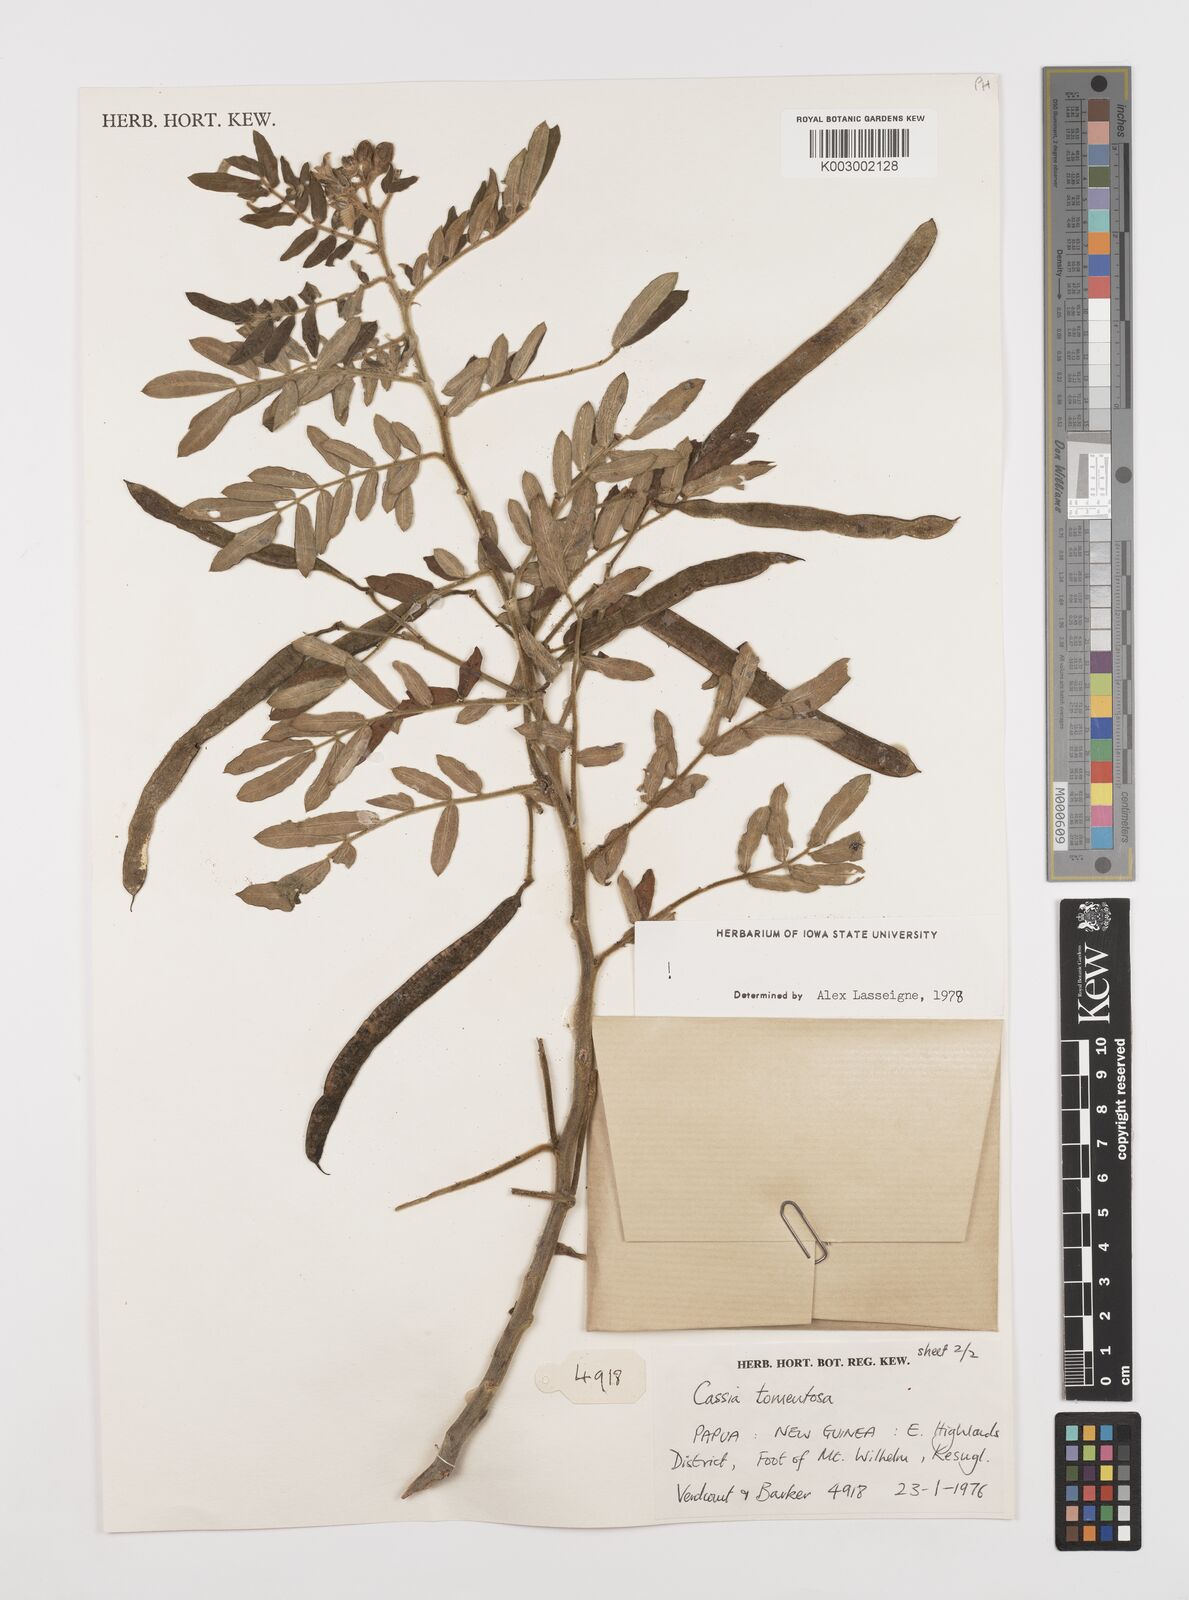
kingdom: Plantae
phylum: Tracheophyta
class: Magnoliopsida
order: Fabales
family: Fabaceae
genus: Senna
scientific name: Senna multiglandulosa
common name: Glandular senna
